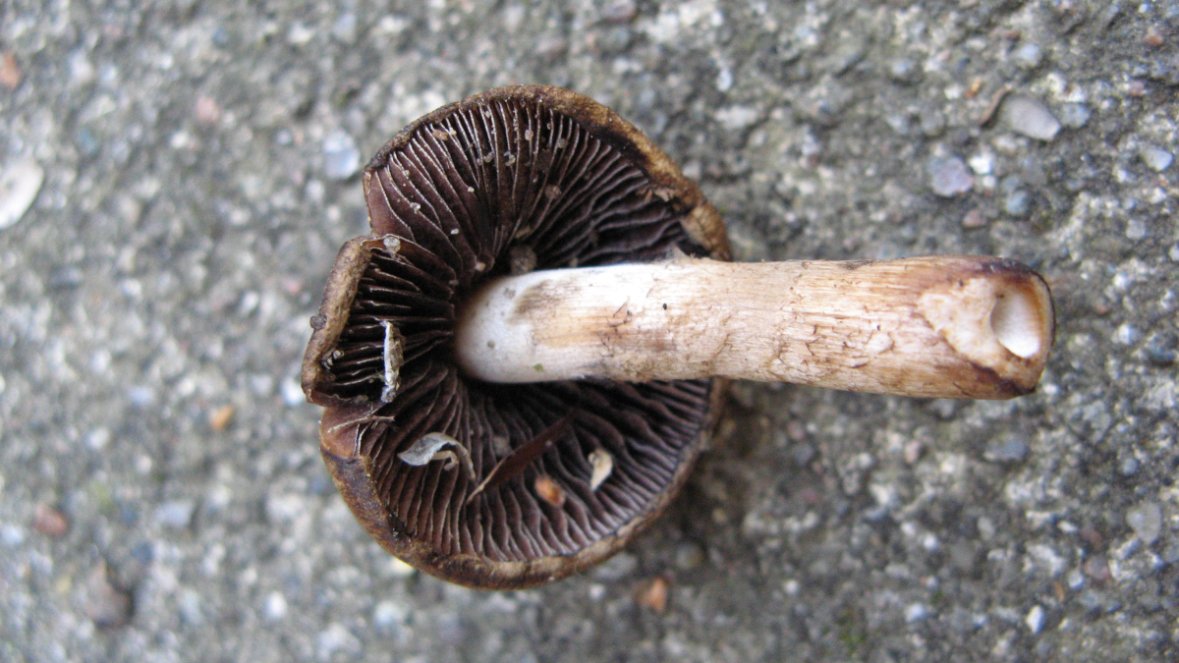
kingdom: Fungi
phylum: Basidiomycota
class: Agaricomycetes
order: Agaricales
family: Psathyrellaceae
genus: Lacrymaria
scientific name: Lacrymaria lacrymabunda
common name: grædende mørkhat
